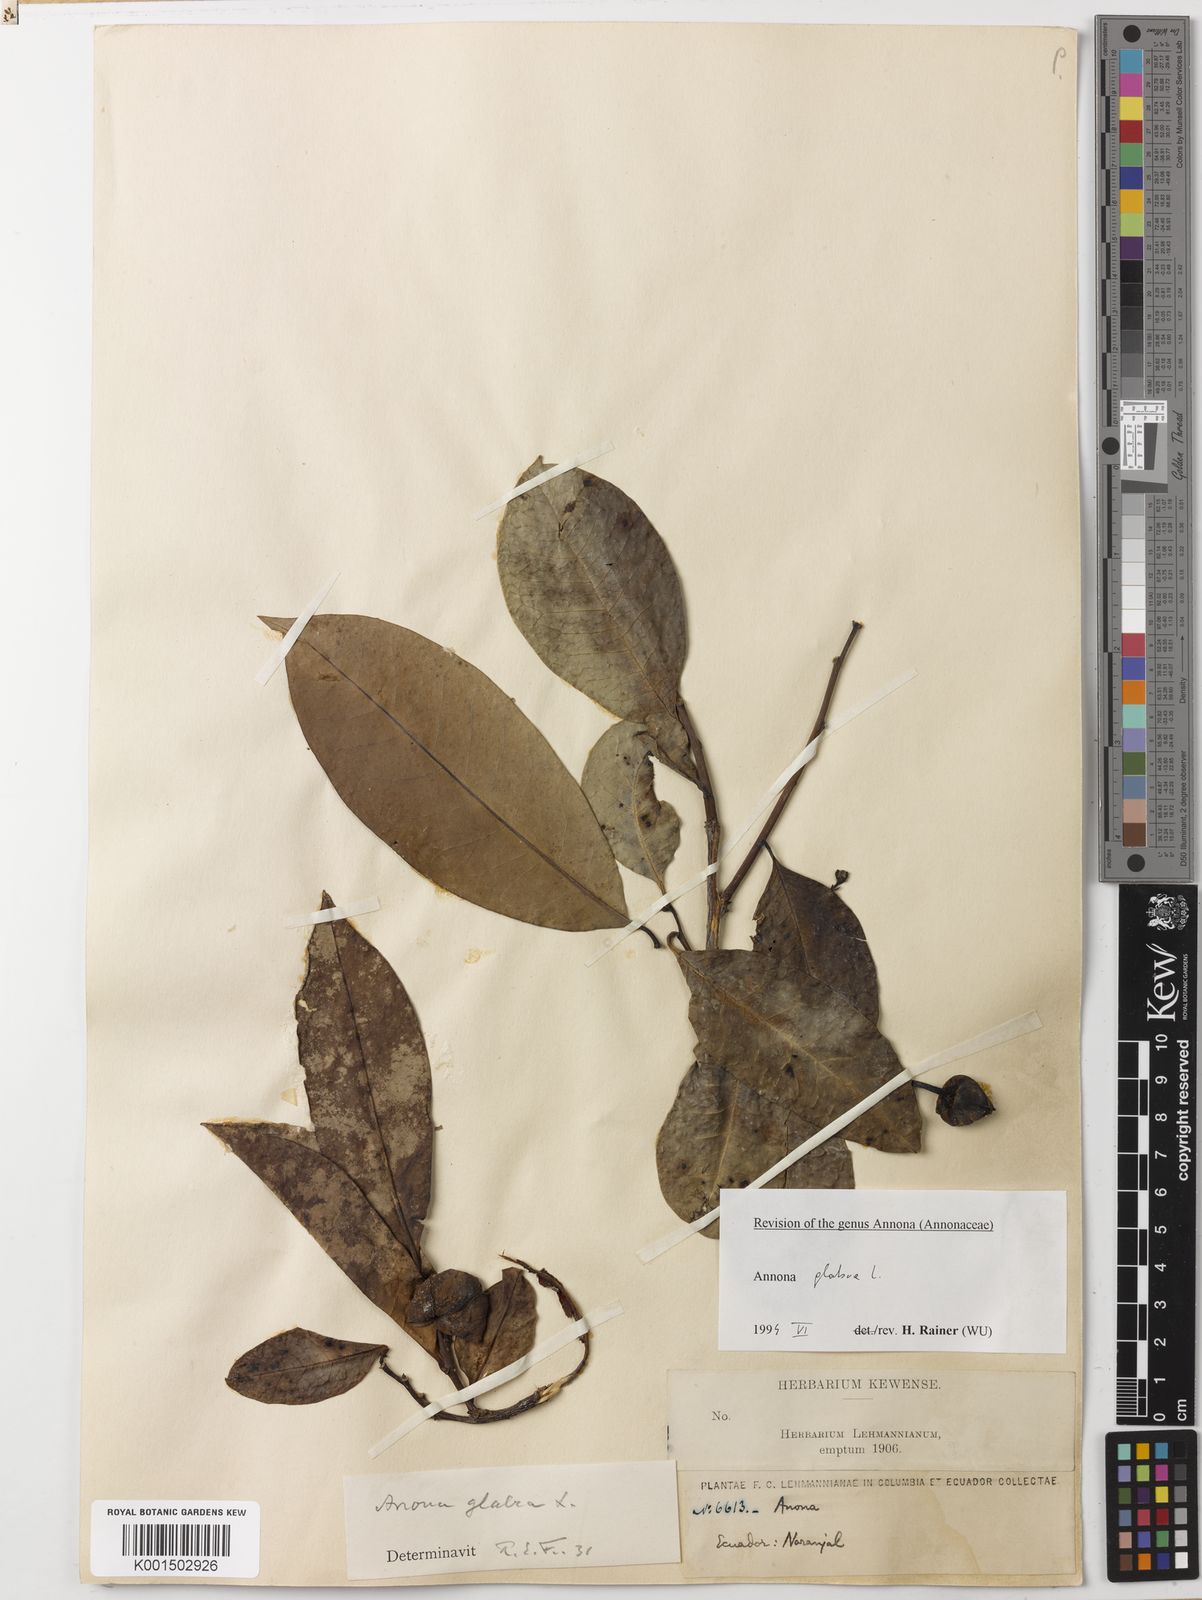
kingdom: Plantae
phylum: Tracheophyta
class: Magnoliopsida
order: Magnoliales
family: Annonaceae
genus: Annona
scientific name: Annona glabra
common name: Monkey apple
